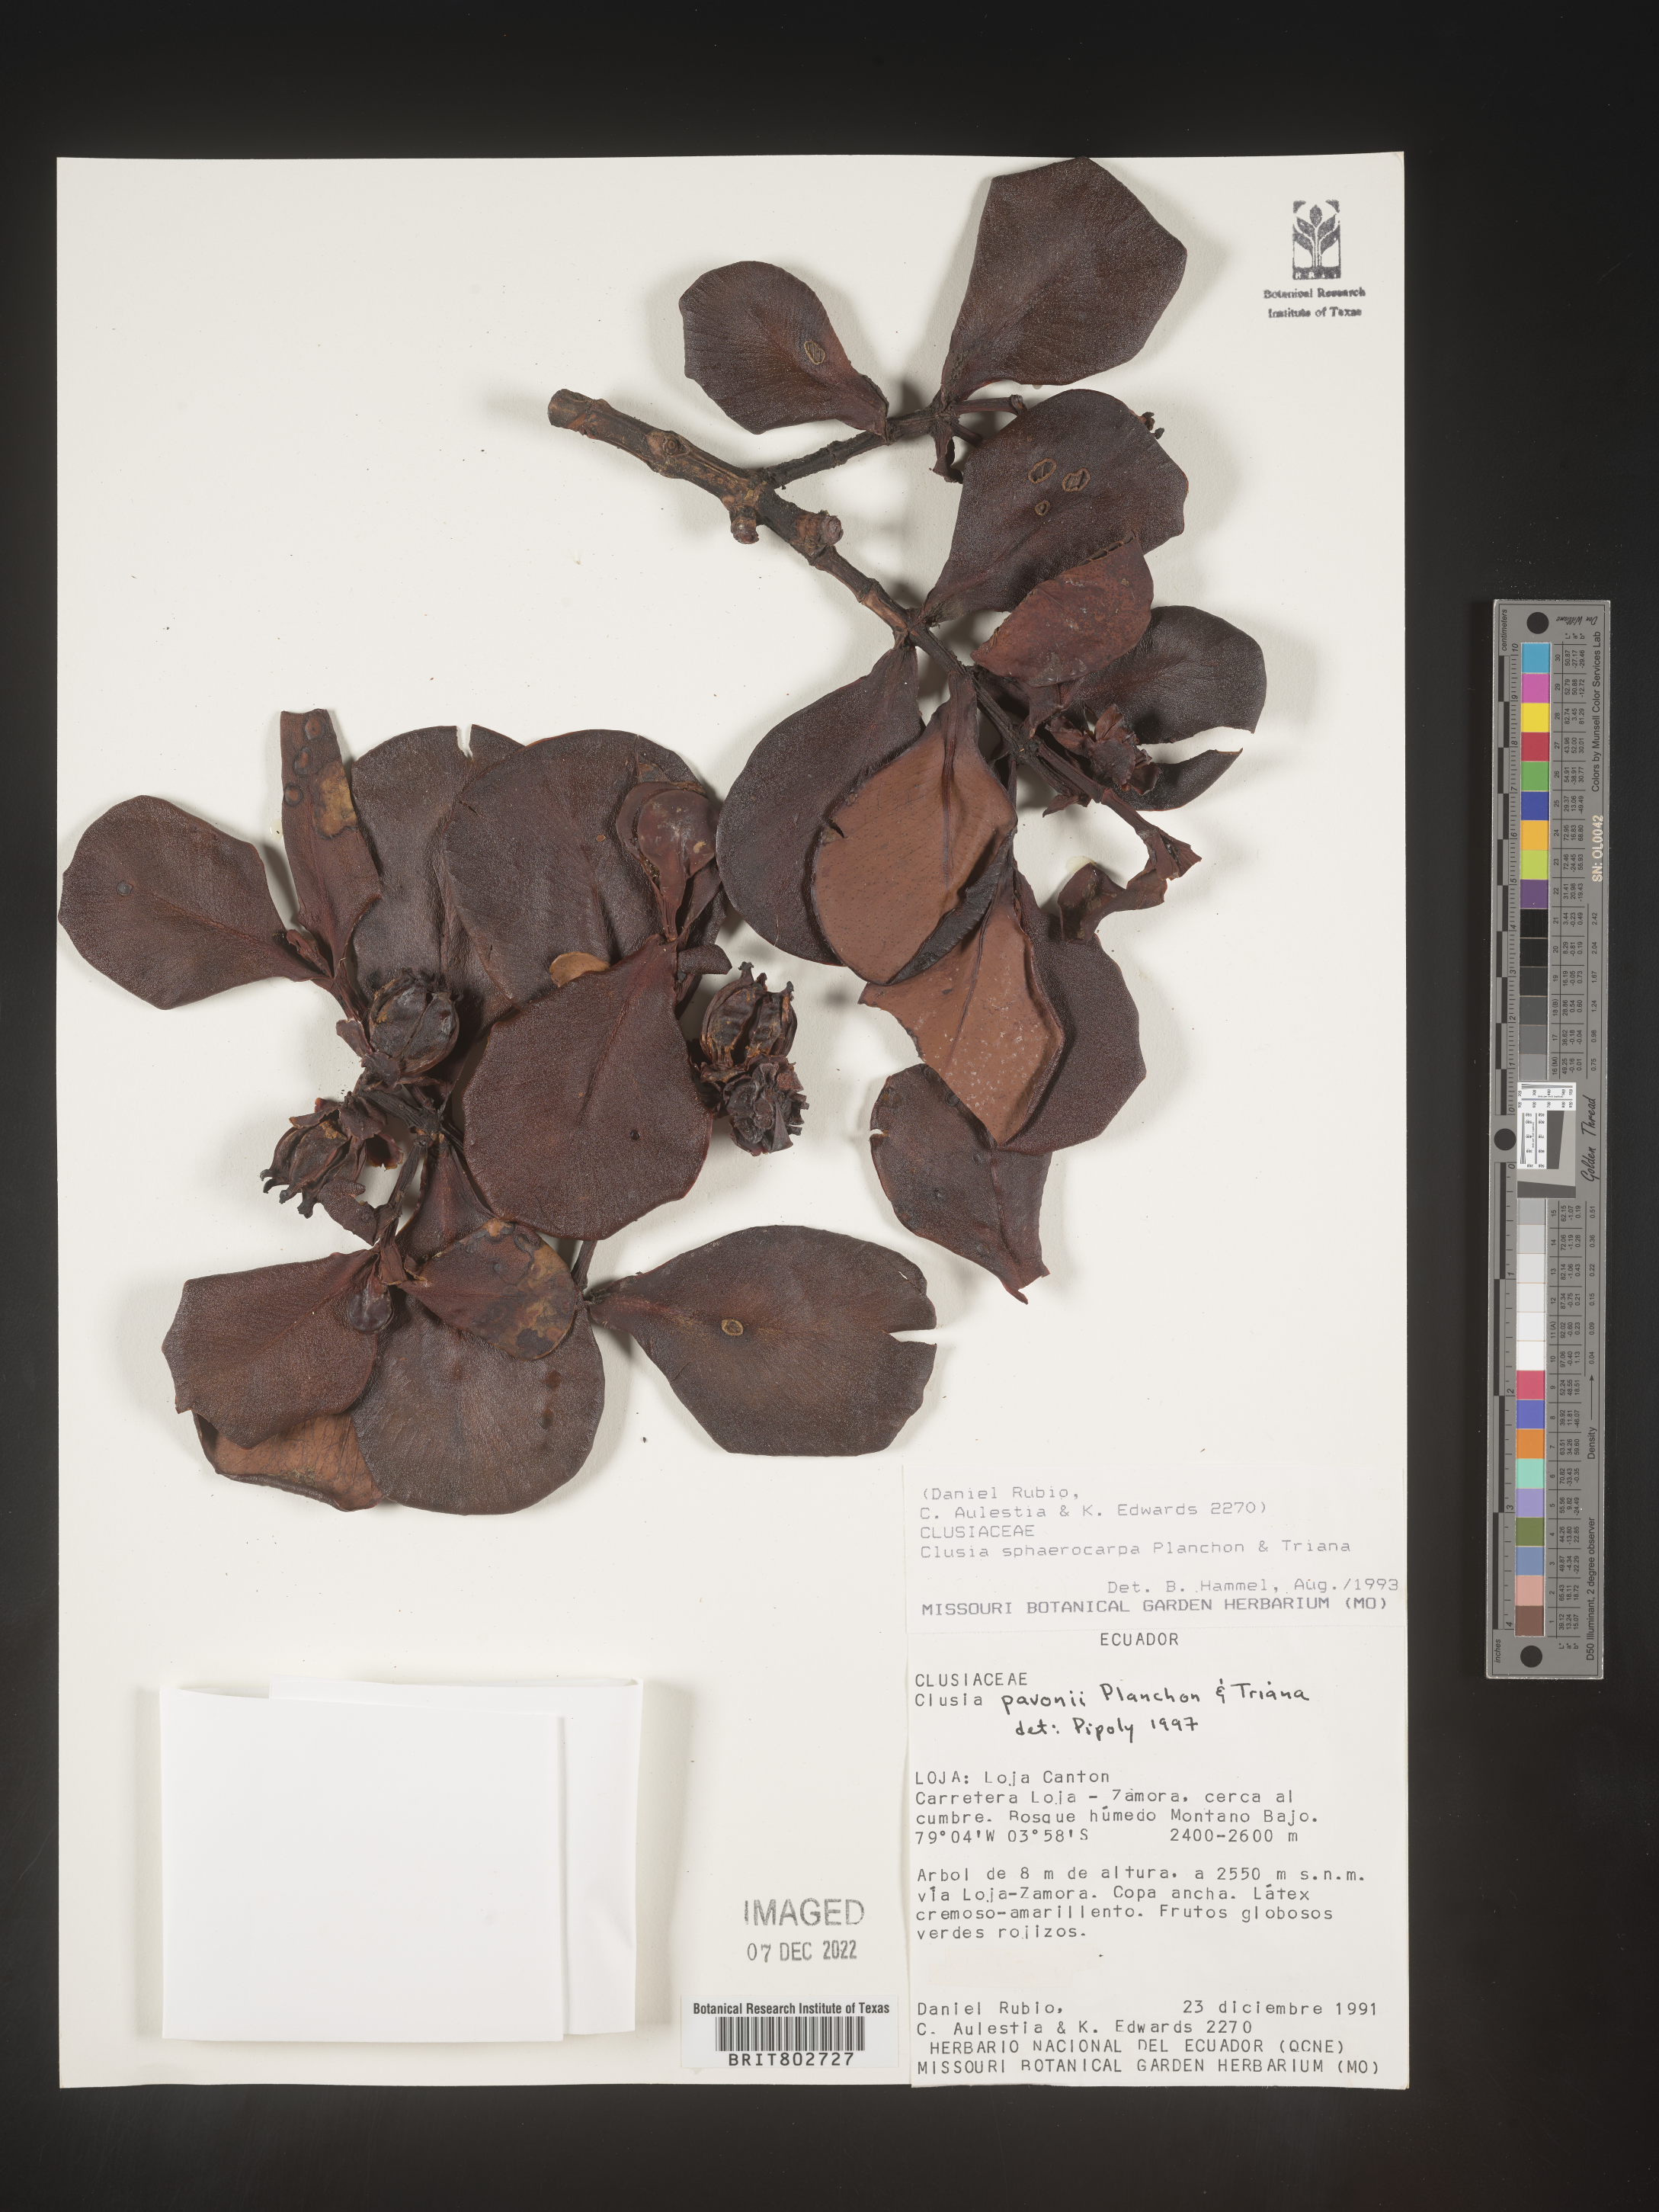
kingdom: Plantae
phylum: Tracheophyta
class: Magnoliopsida
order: Malpighiales
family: Clusiaceae
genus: Clusia
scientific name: Clusia pavonii
